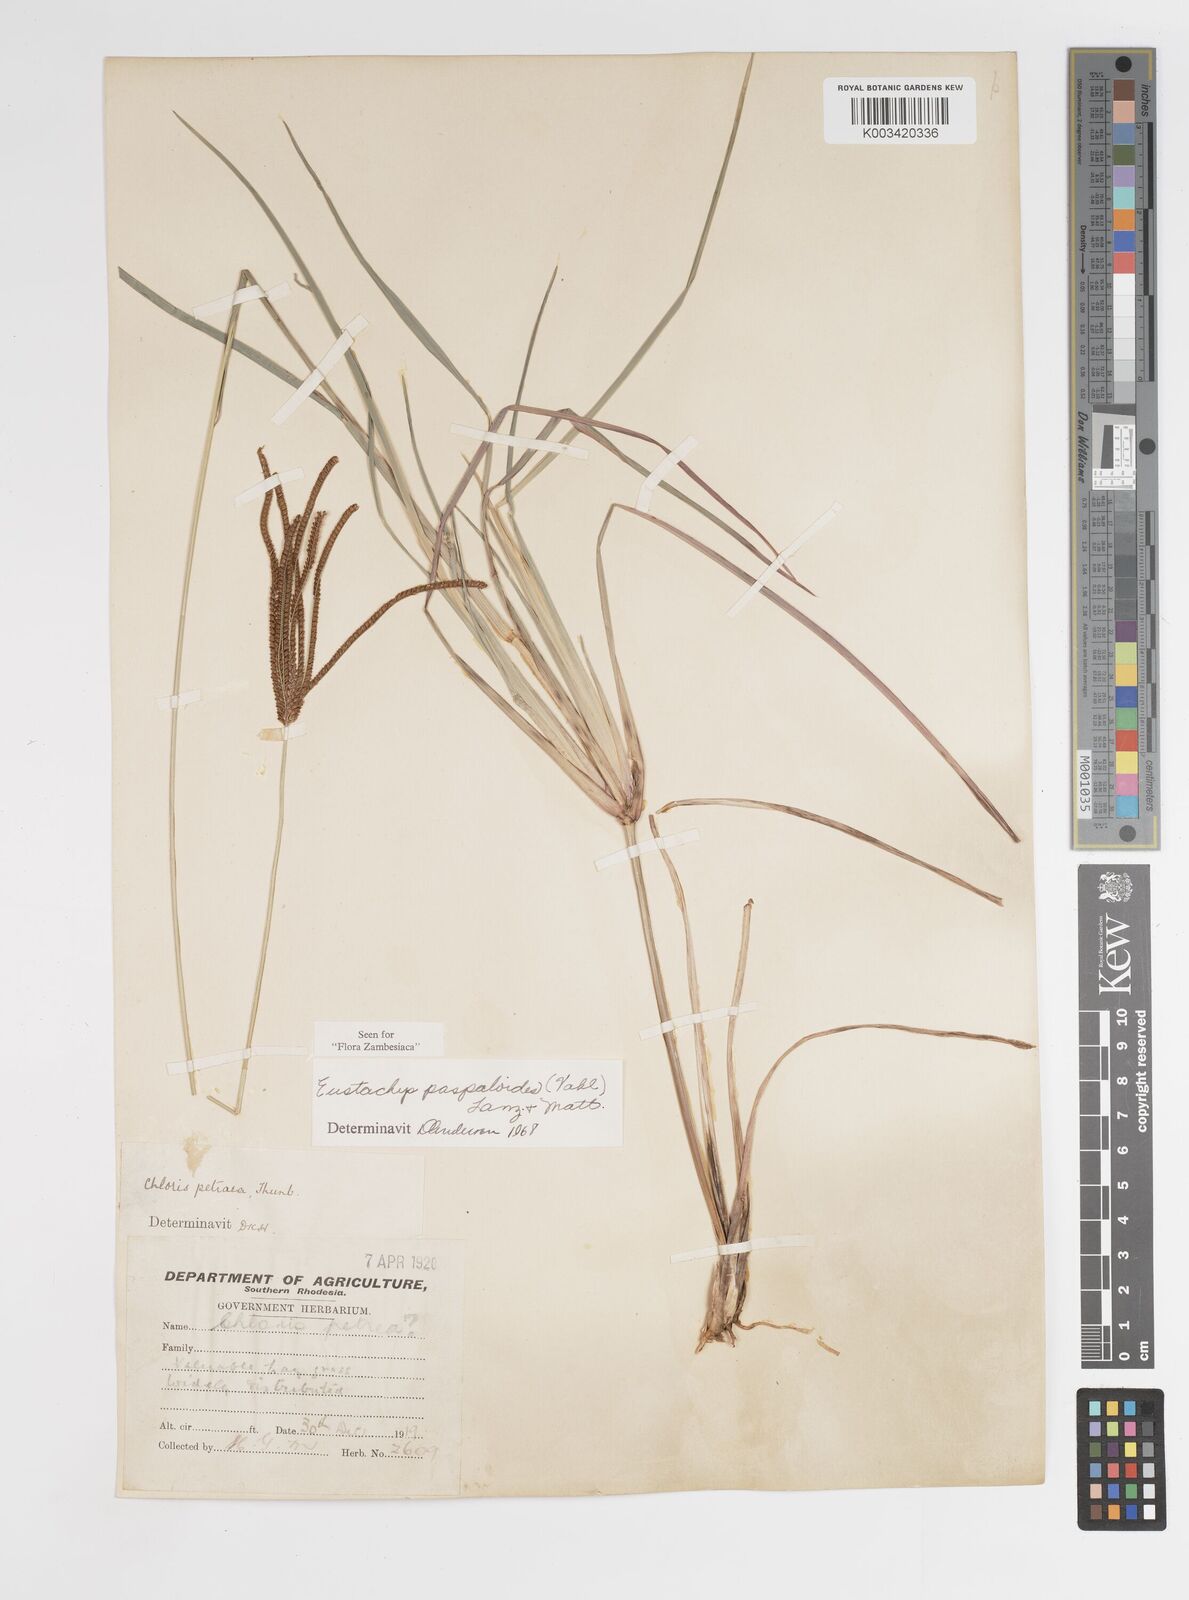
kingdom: Plantae
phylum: Tracheophyta
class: Liliopsida
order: Poales
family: Poaceae
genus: Eustachys
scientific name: Eustachys paspaloides
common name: Caribbean fingergrass
